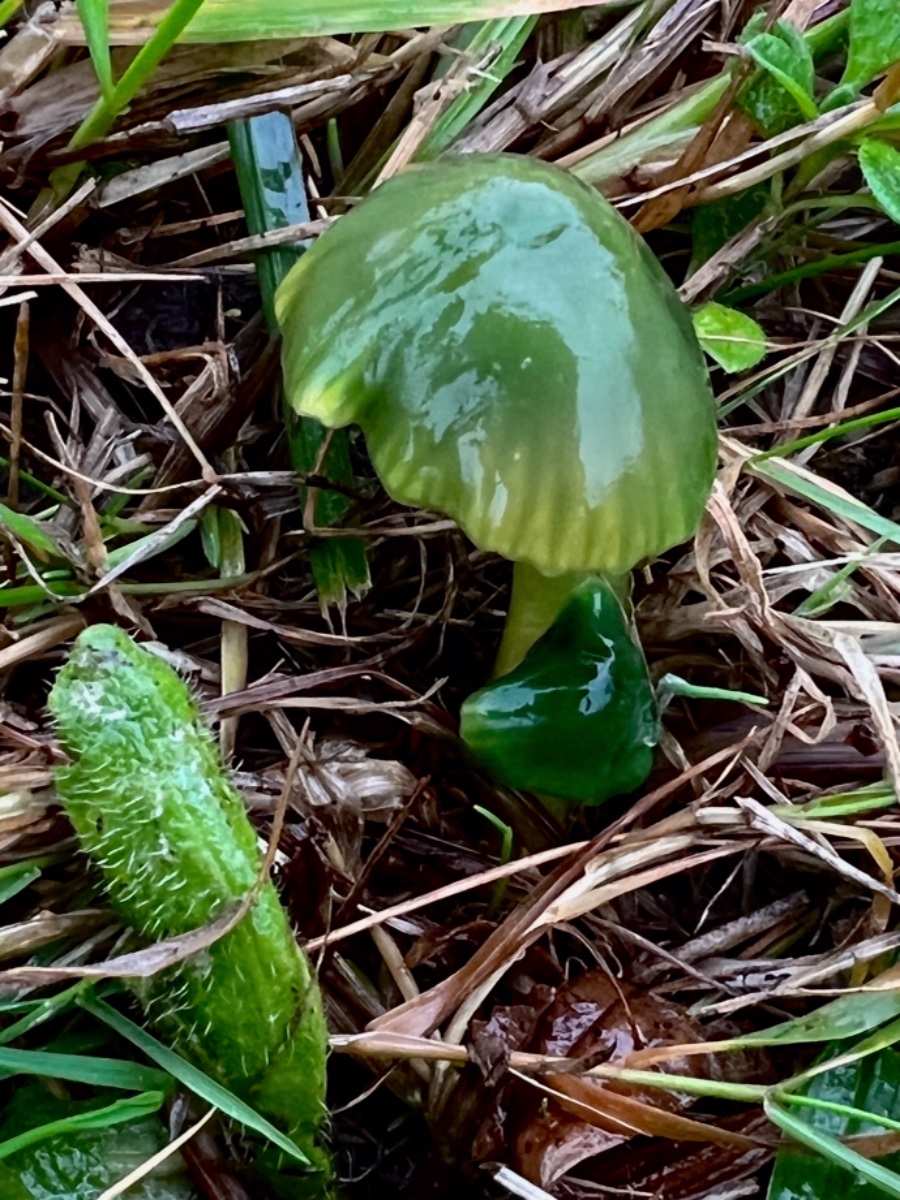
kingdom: Fungi
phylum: Basidiomycota
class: Agaricomycetes
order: Agaricales
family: Hygrophoraceae
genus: Gliophorus
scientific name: Gliophorus psittacinus
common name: papegøje-vokshat
